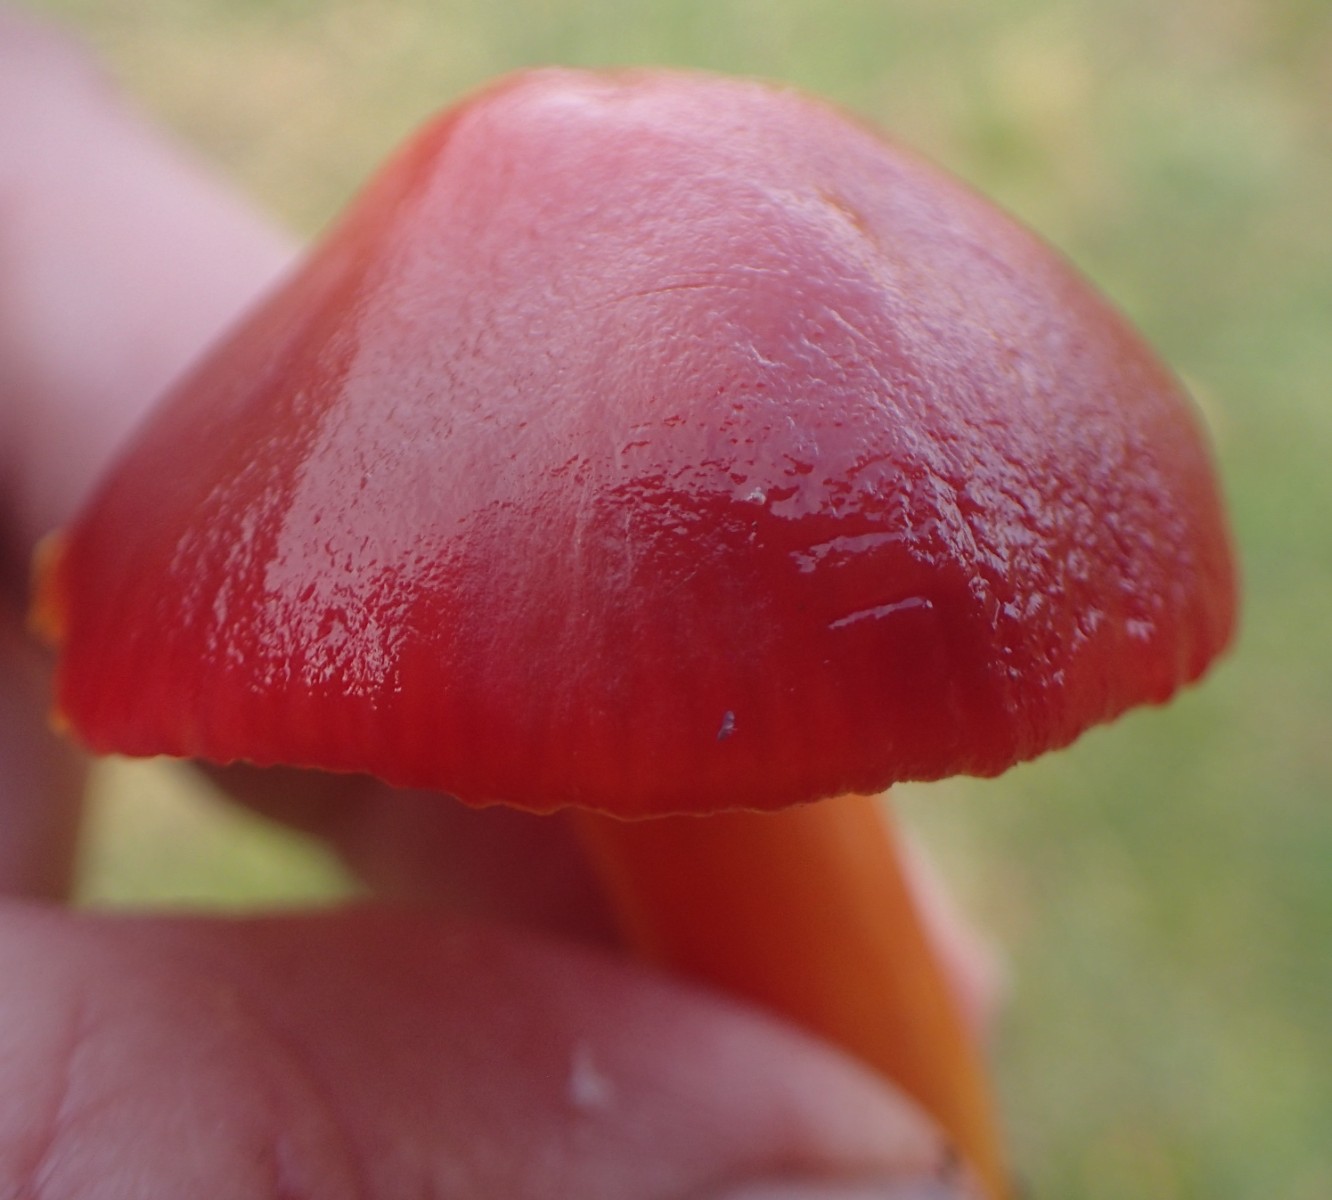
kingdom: Fungi
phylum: Basidiomycota
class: Agaricomycetes
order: Agaricales
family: Hygrophoraceae
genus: Hygrocybe
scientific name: Hygrocybe punicea
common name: skarlagen-vokshat
